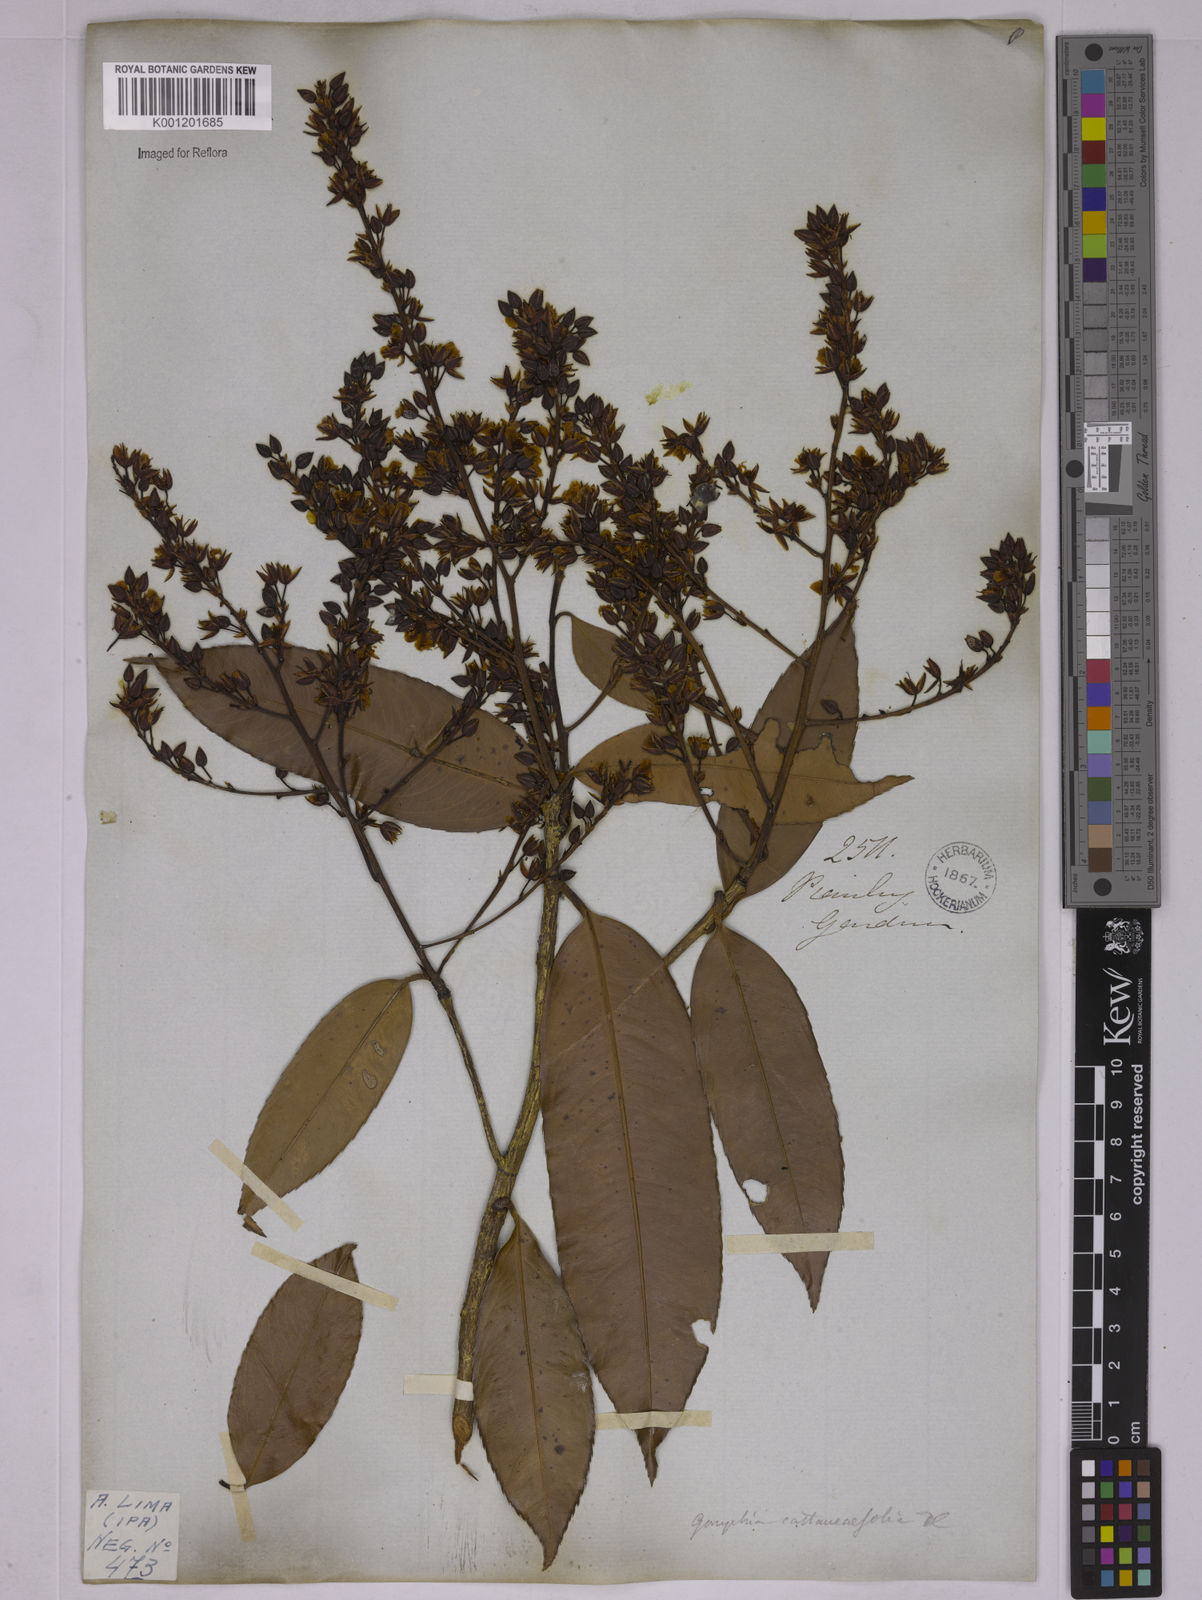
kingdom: Plantae
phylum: Tracheophyta
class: Magnoliopsida
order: Malpighiales
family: Ochnaceae
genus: Ouratea
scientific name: Ouratea castaneifolia
